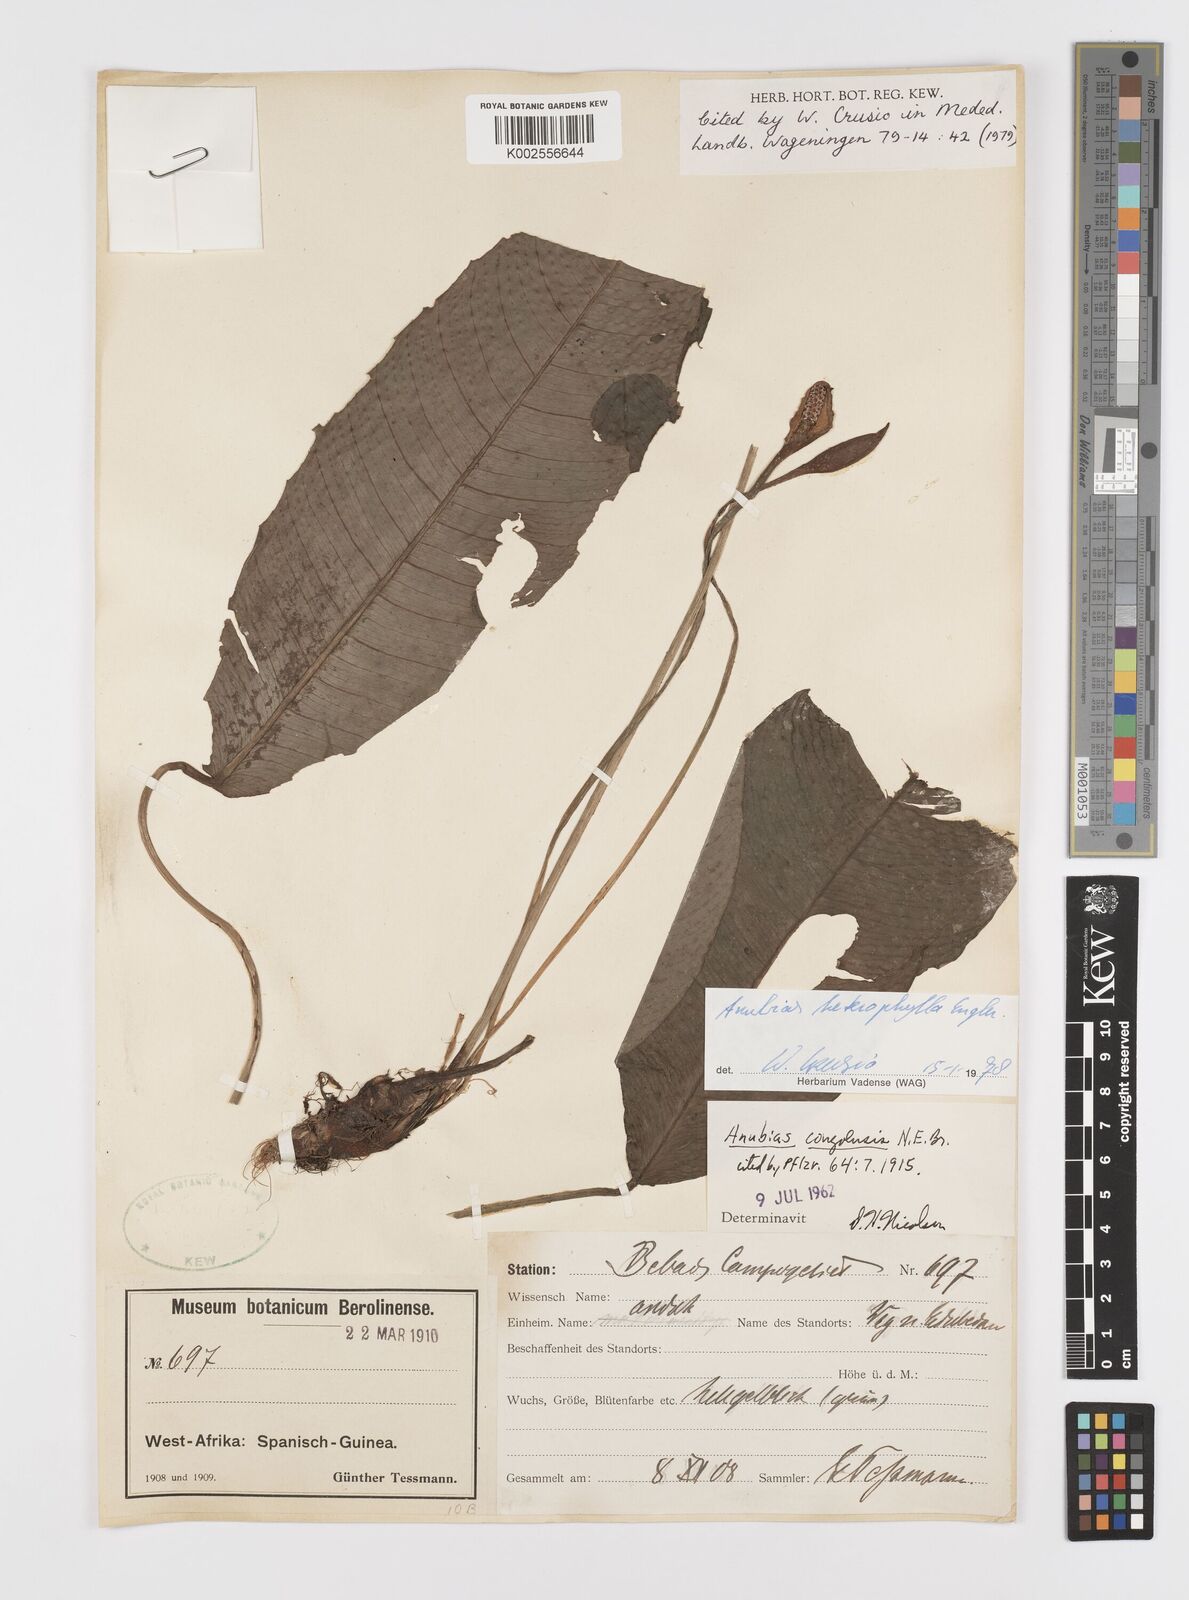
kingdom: Plantae
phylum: Tracheophyta
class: Liliopsida
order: Alismatales
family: Araceae
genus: Anubias
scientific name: Anubias heterophylla
